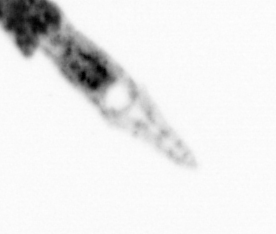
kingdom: Animalia
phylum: Arthropoda
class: Copepoda
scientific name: Copepoda
